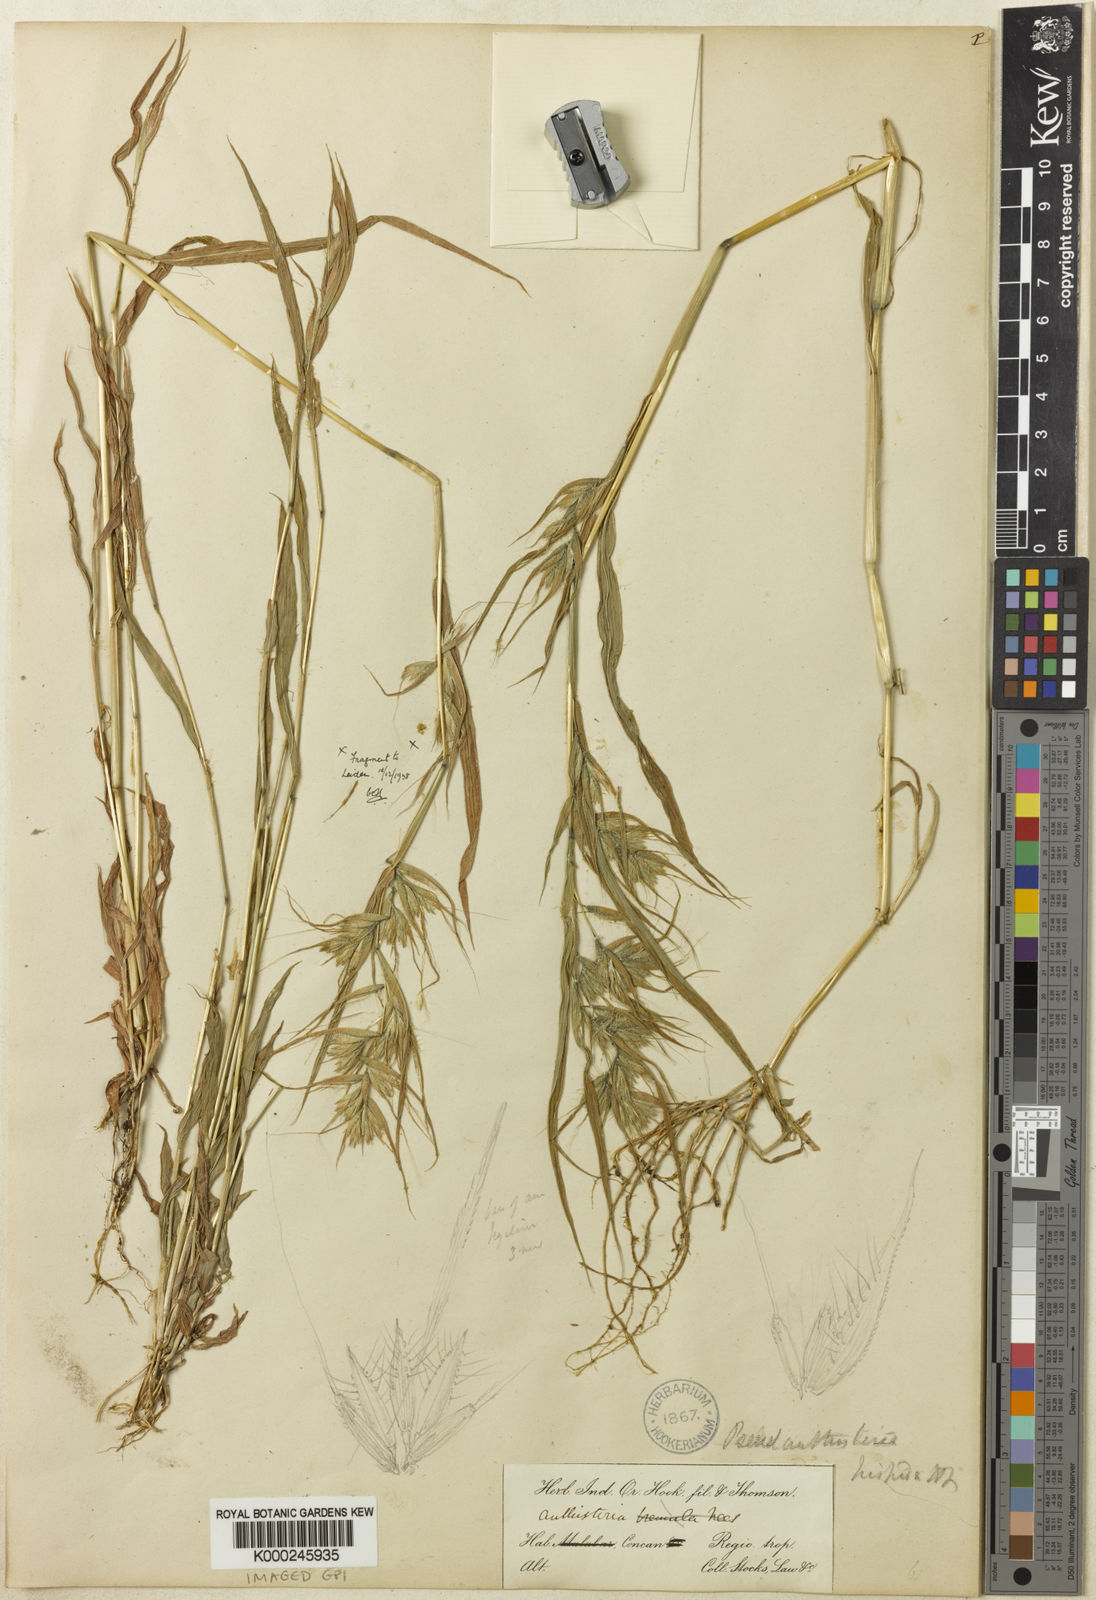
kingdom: Plantae
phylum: Tracheophyta
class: Liliopsida
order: Poales
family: Poaceae
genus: Pseudanthistiria
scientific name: Pseudanthistiria heteroclita
